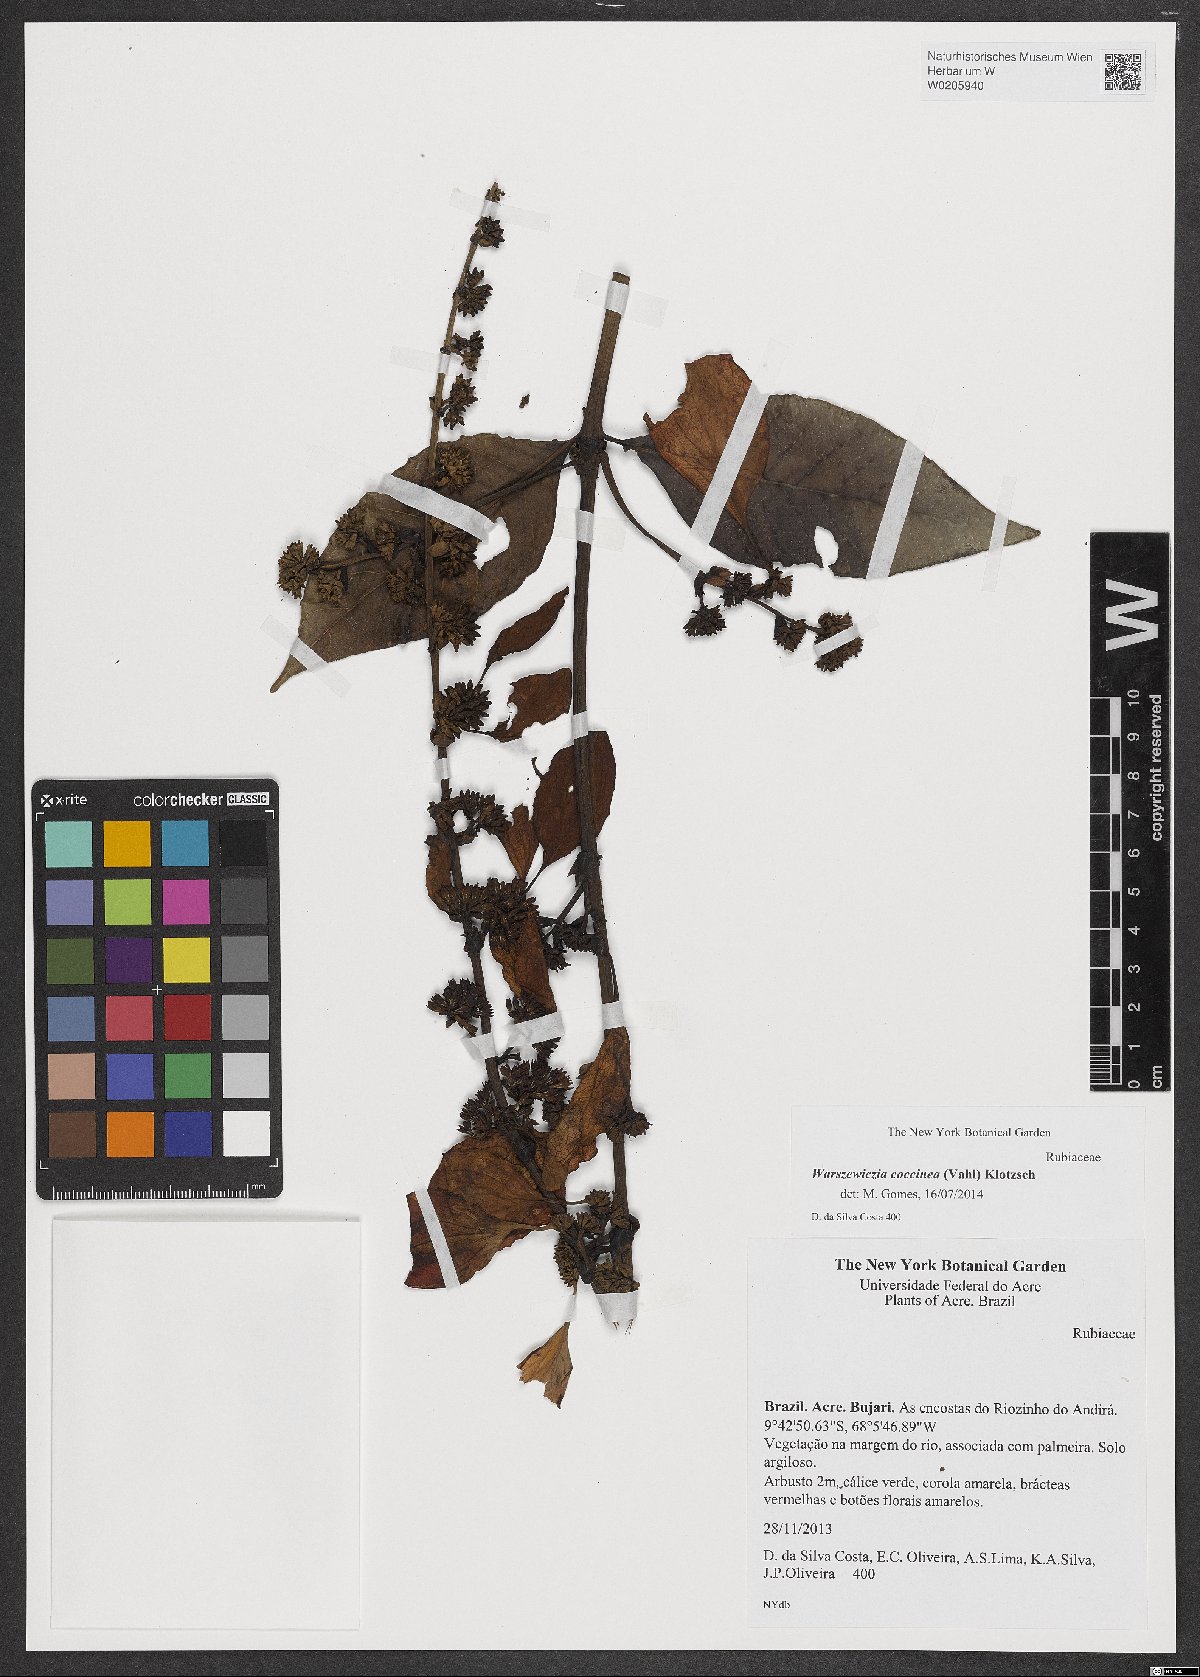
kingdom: Plantae
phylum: Tracheophyta
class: Magnoliopsida
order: Gentianales
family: Rubiaceae
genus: Warszewiczia
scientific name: Warszewiczia coccinea
